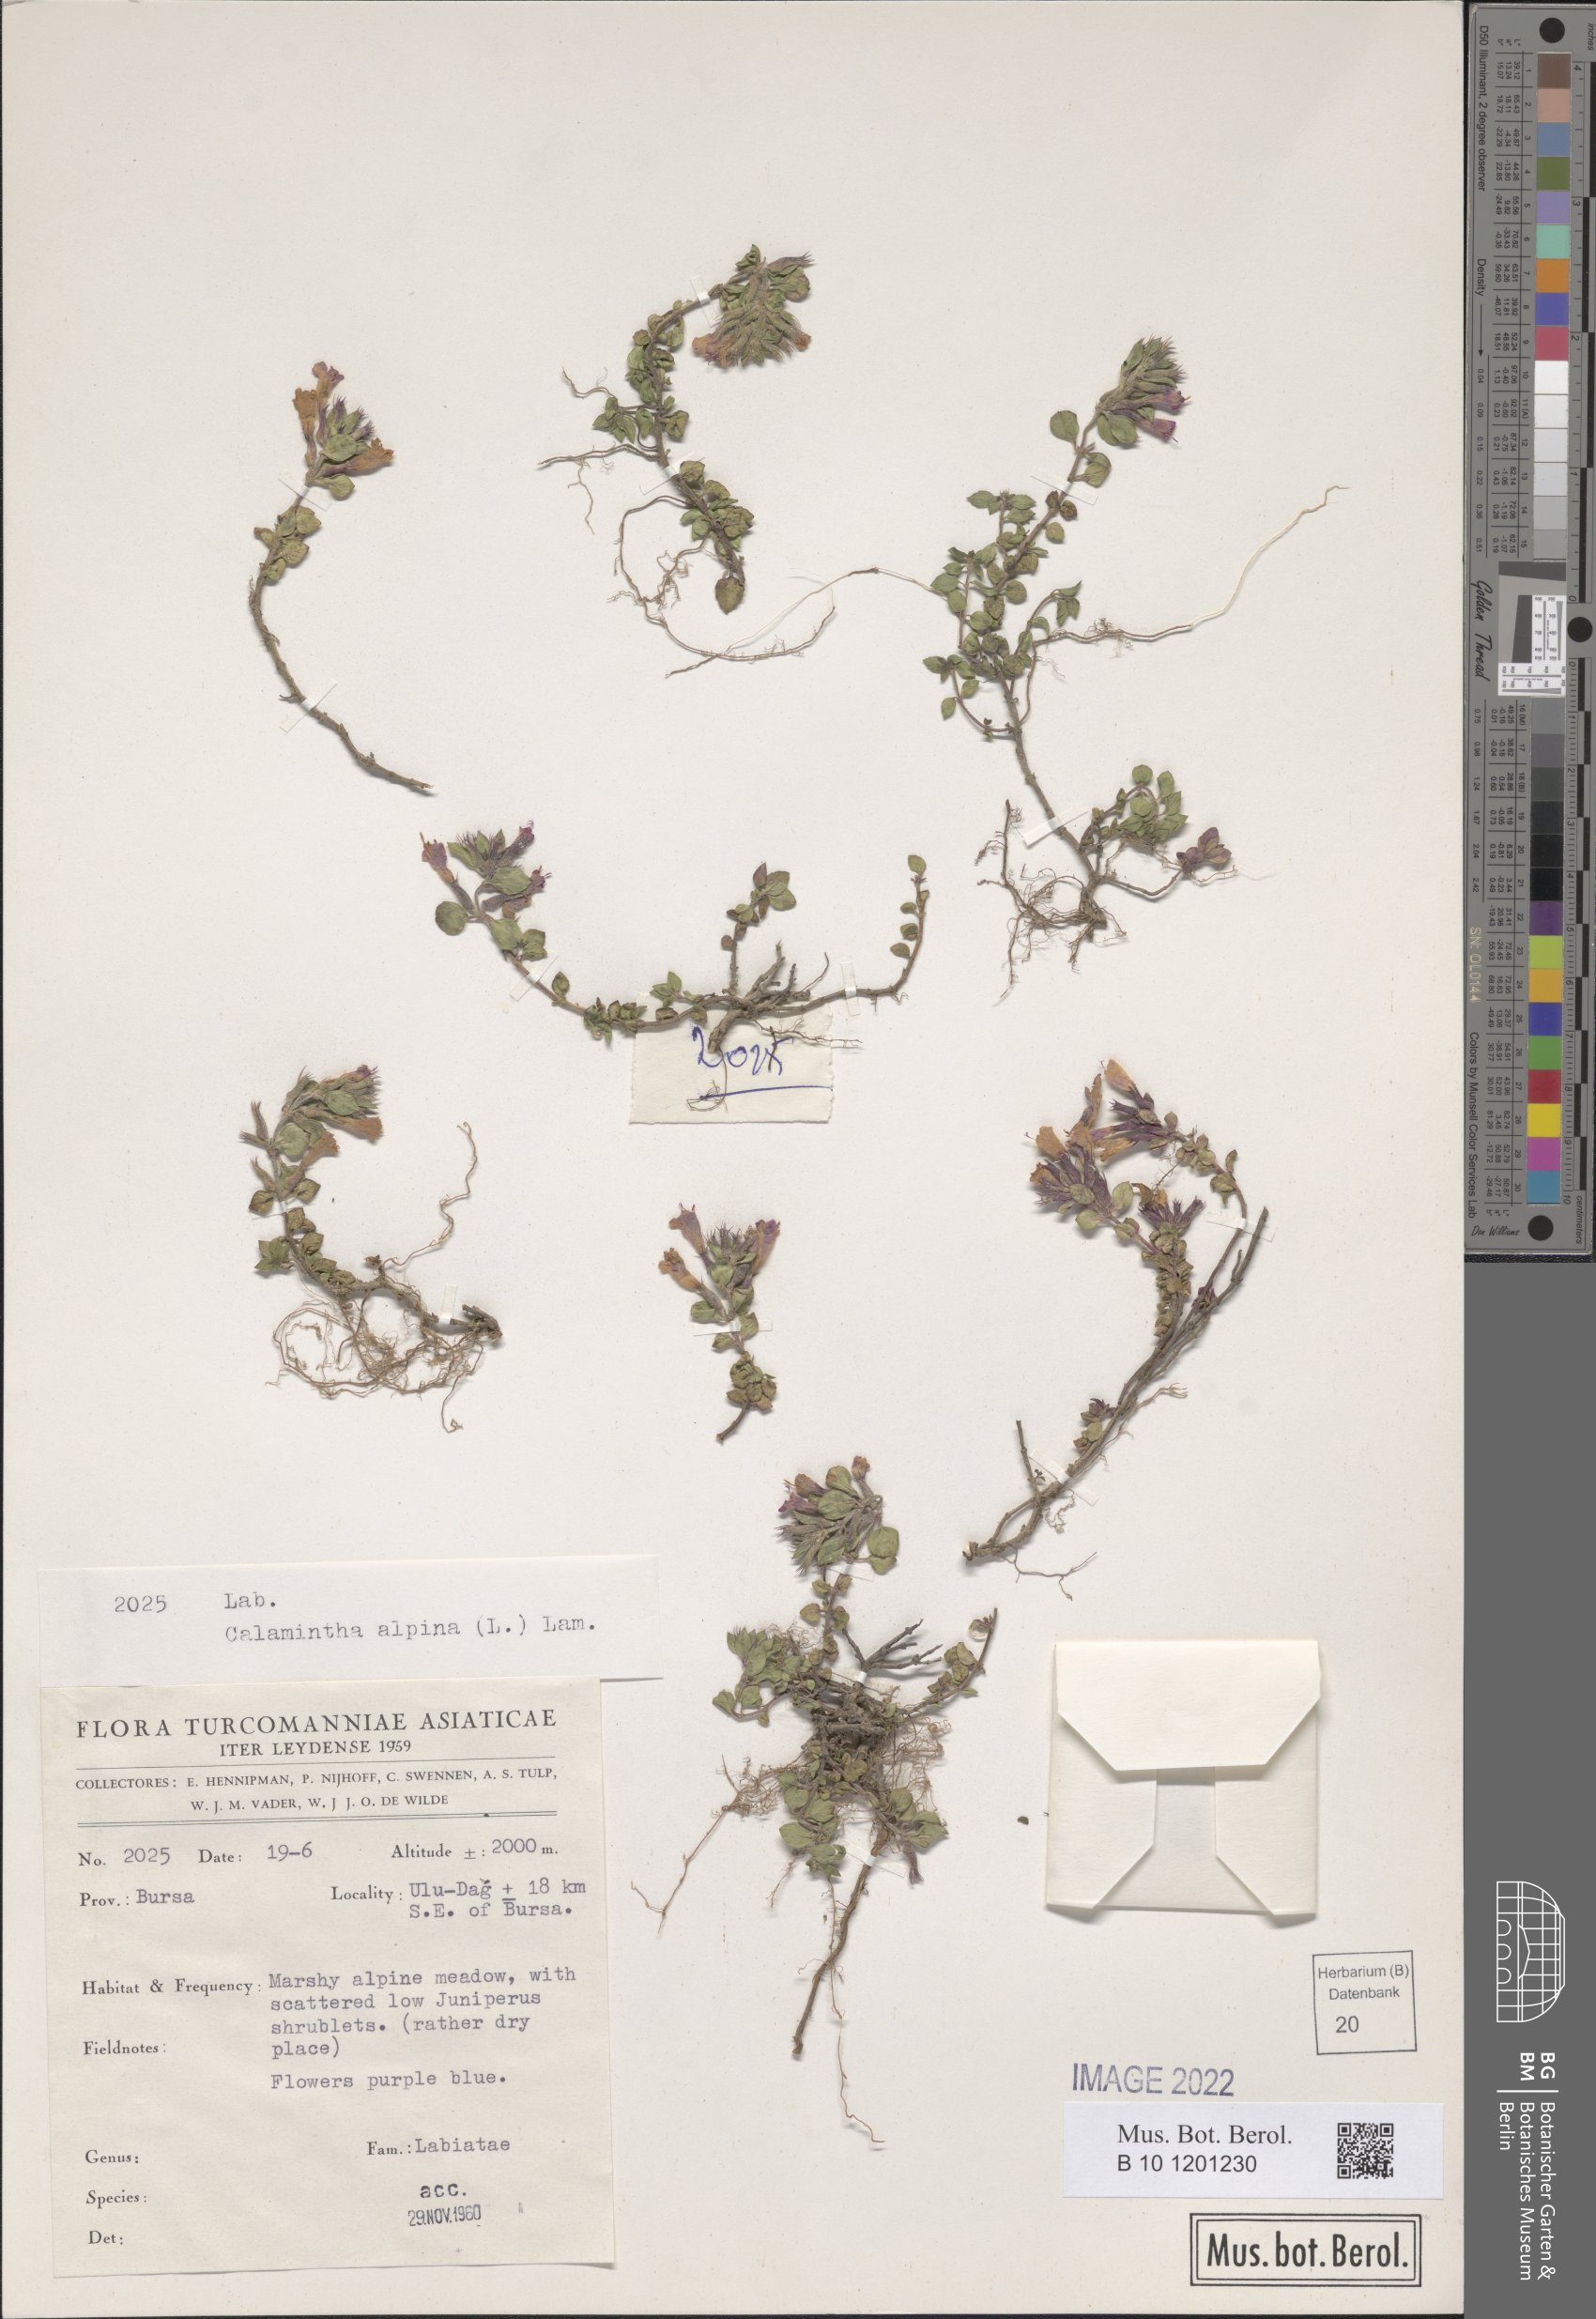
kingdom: Plantae
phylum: Tracheophyta
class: Magnoliopsida
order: Lamiales
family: Lamiaceae
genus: Clinopodium
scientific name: Clinopodium alpinum
